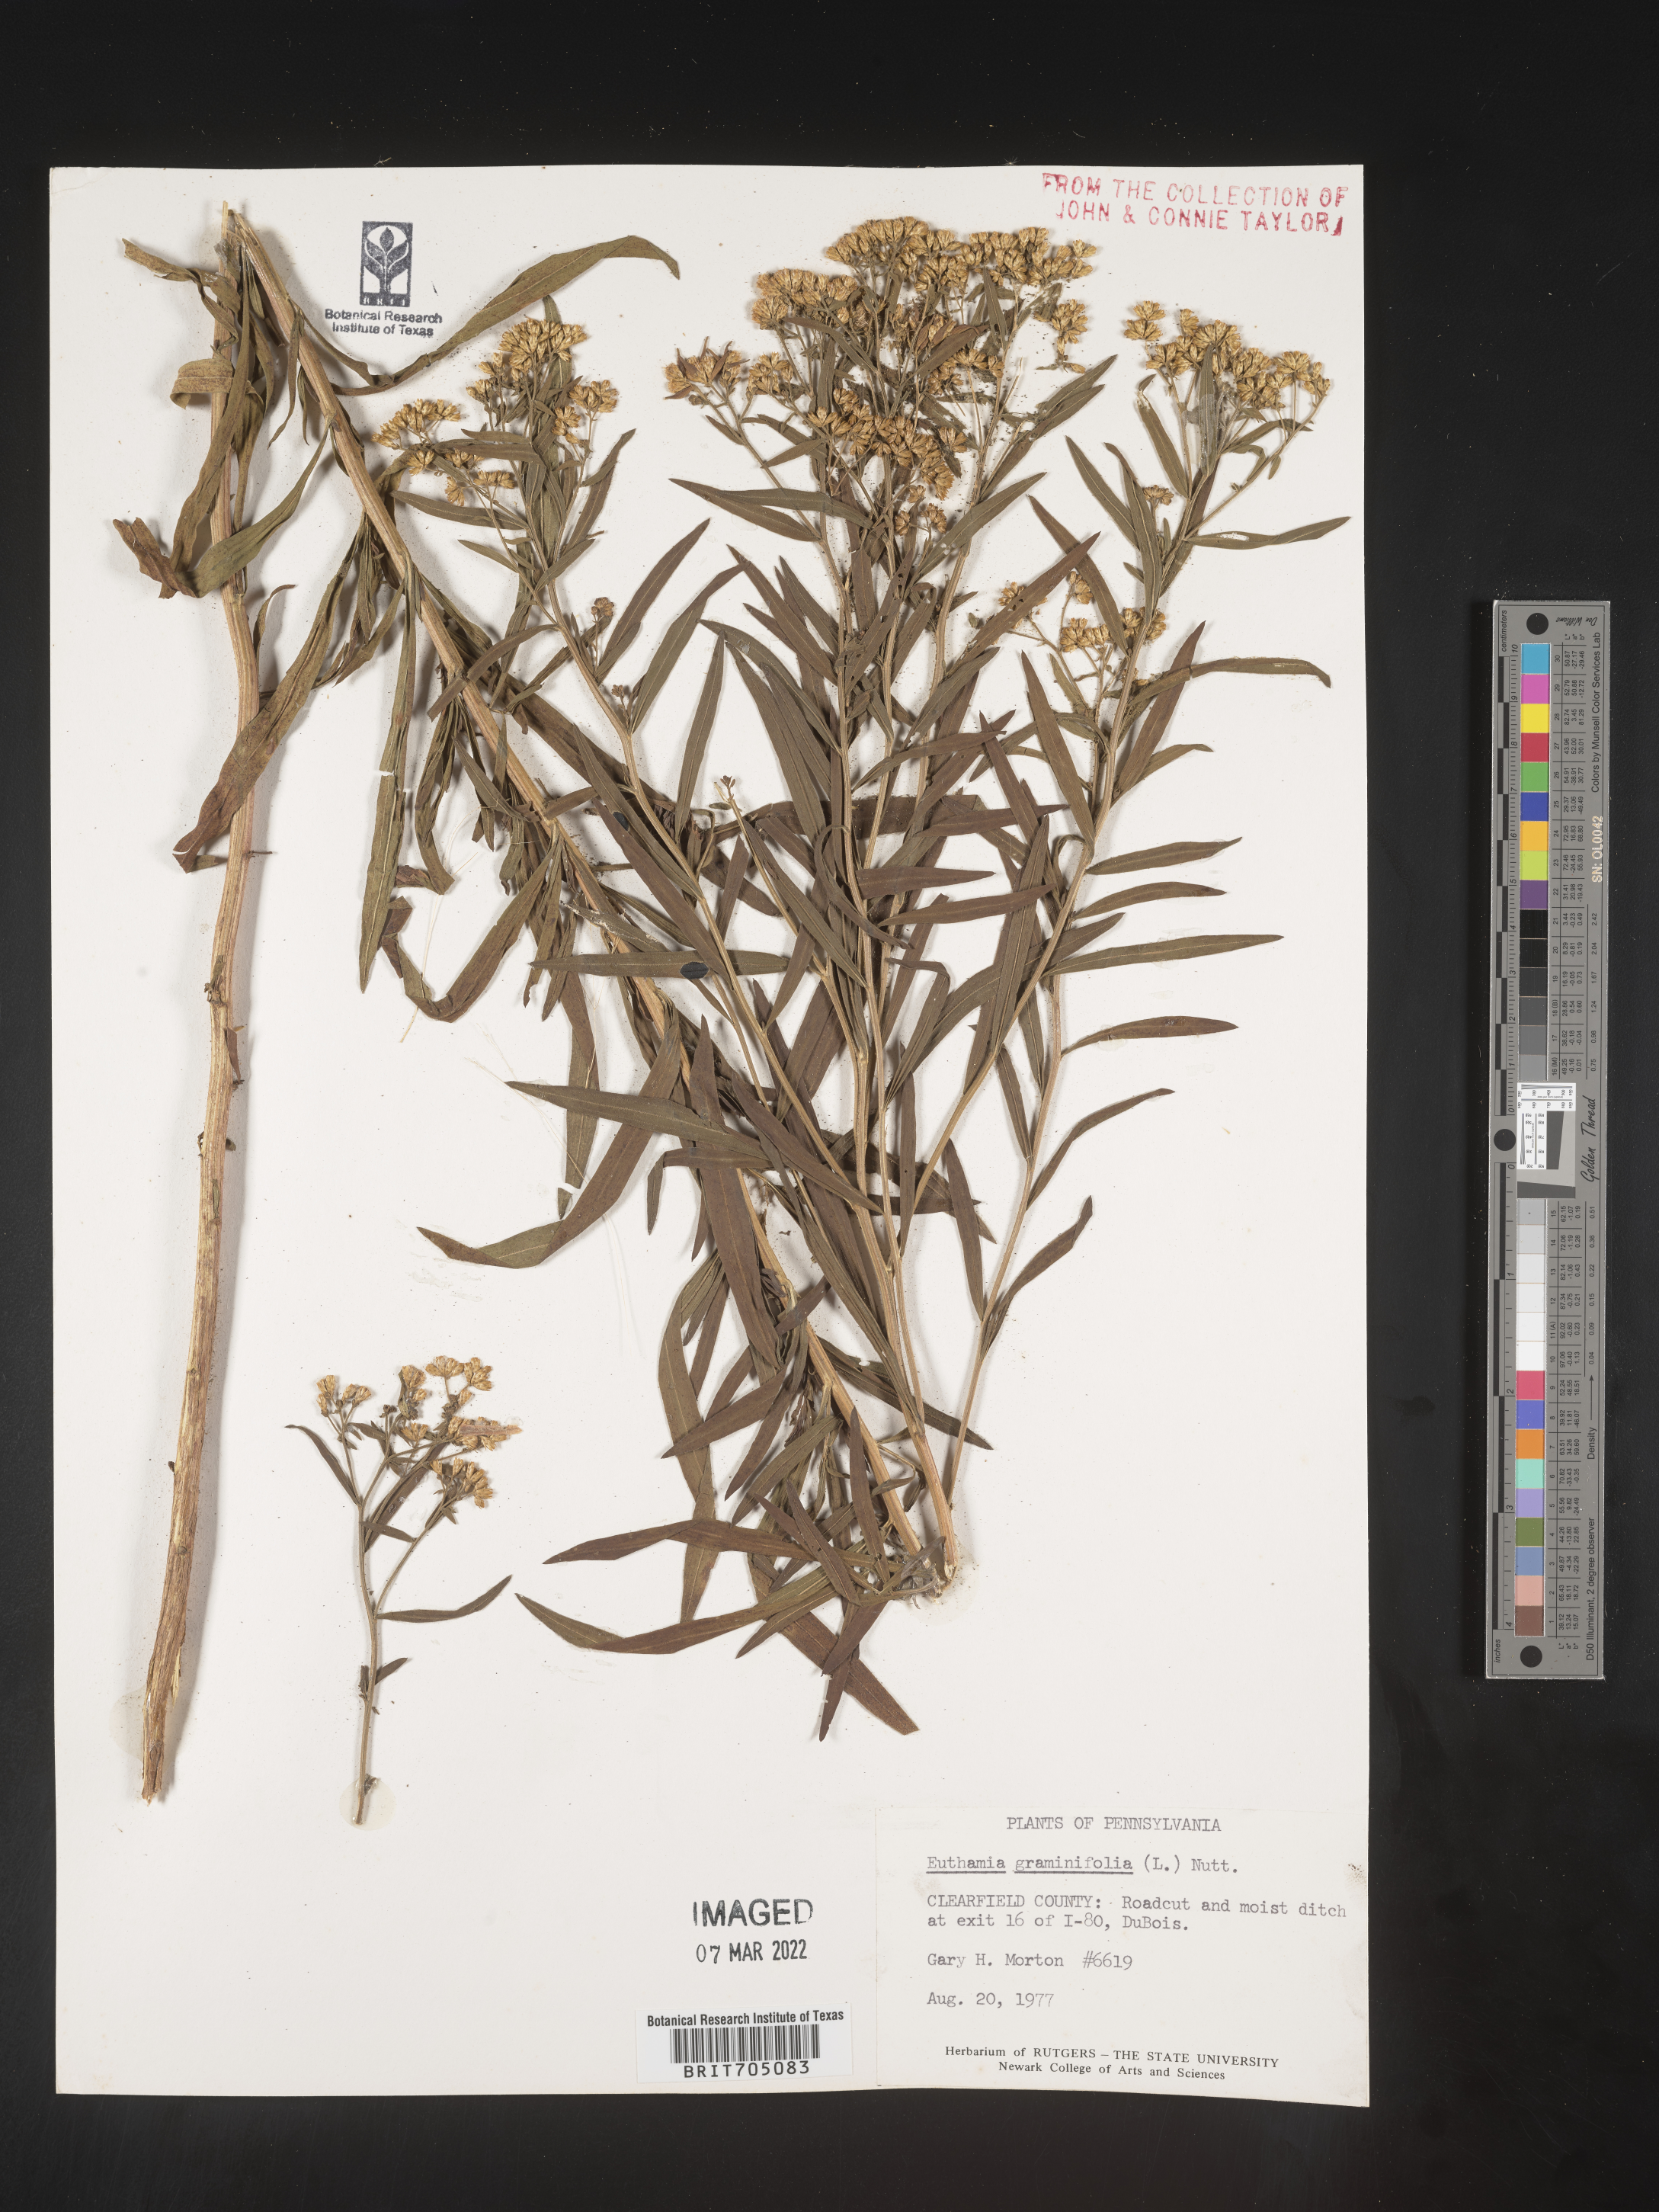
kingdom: Plantae
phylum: Tracheophyta
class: Magnoliopsida
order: Asterales
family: Asteraceae
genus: Euthamia
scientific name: Euthamia graminifolia
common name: Common goldentop
